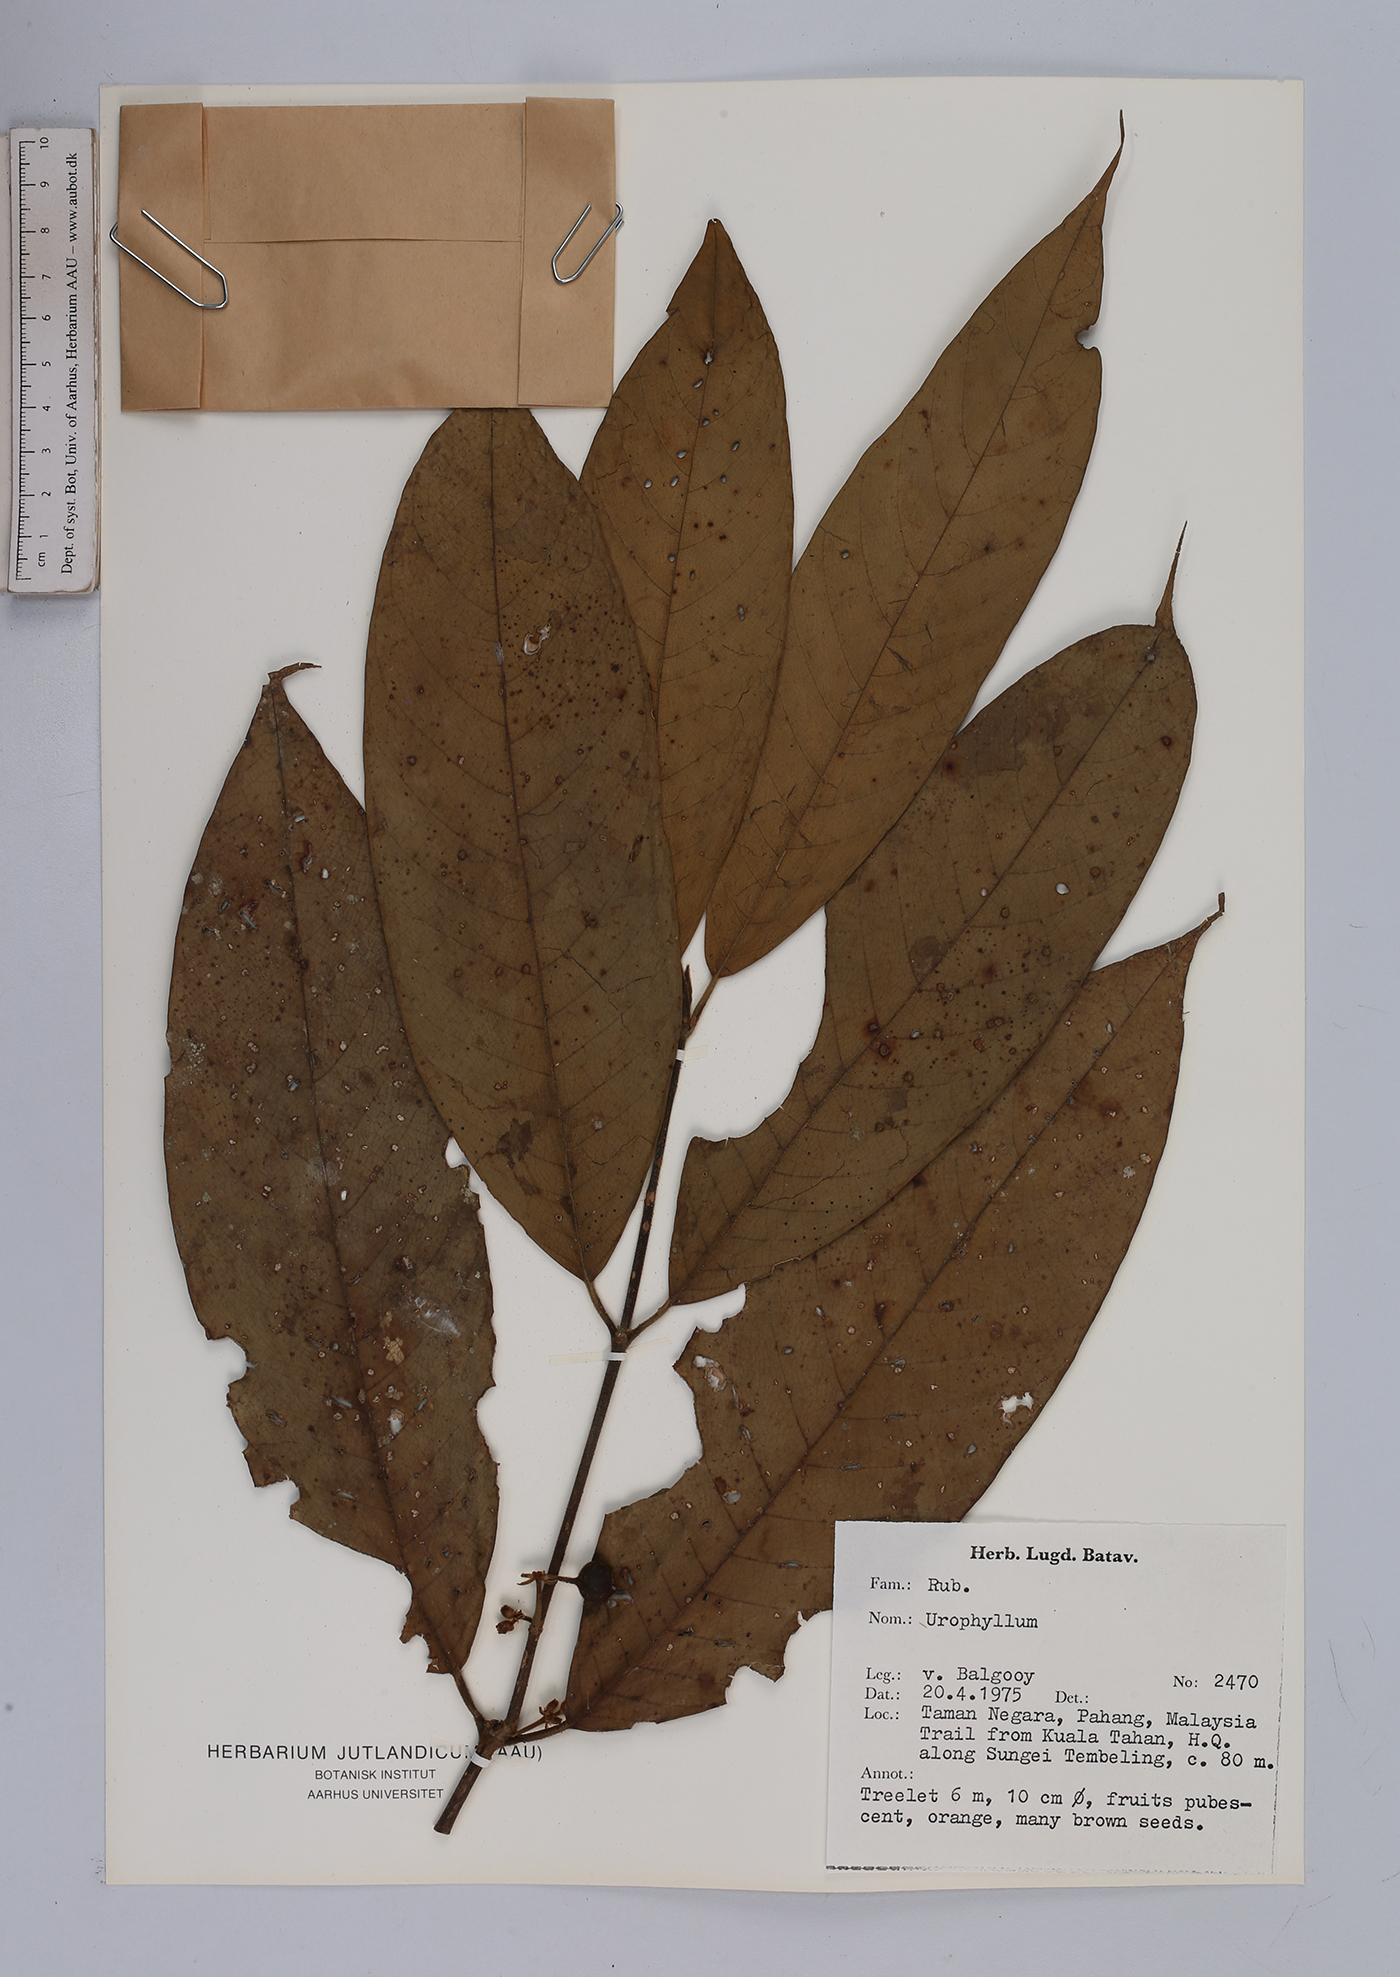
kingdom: Plantae
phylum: Tracheophyta
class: Magnoliopsida
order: Gentianales
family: Rubiaceae
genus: Urophyllum
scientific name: Urophyllum
